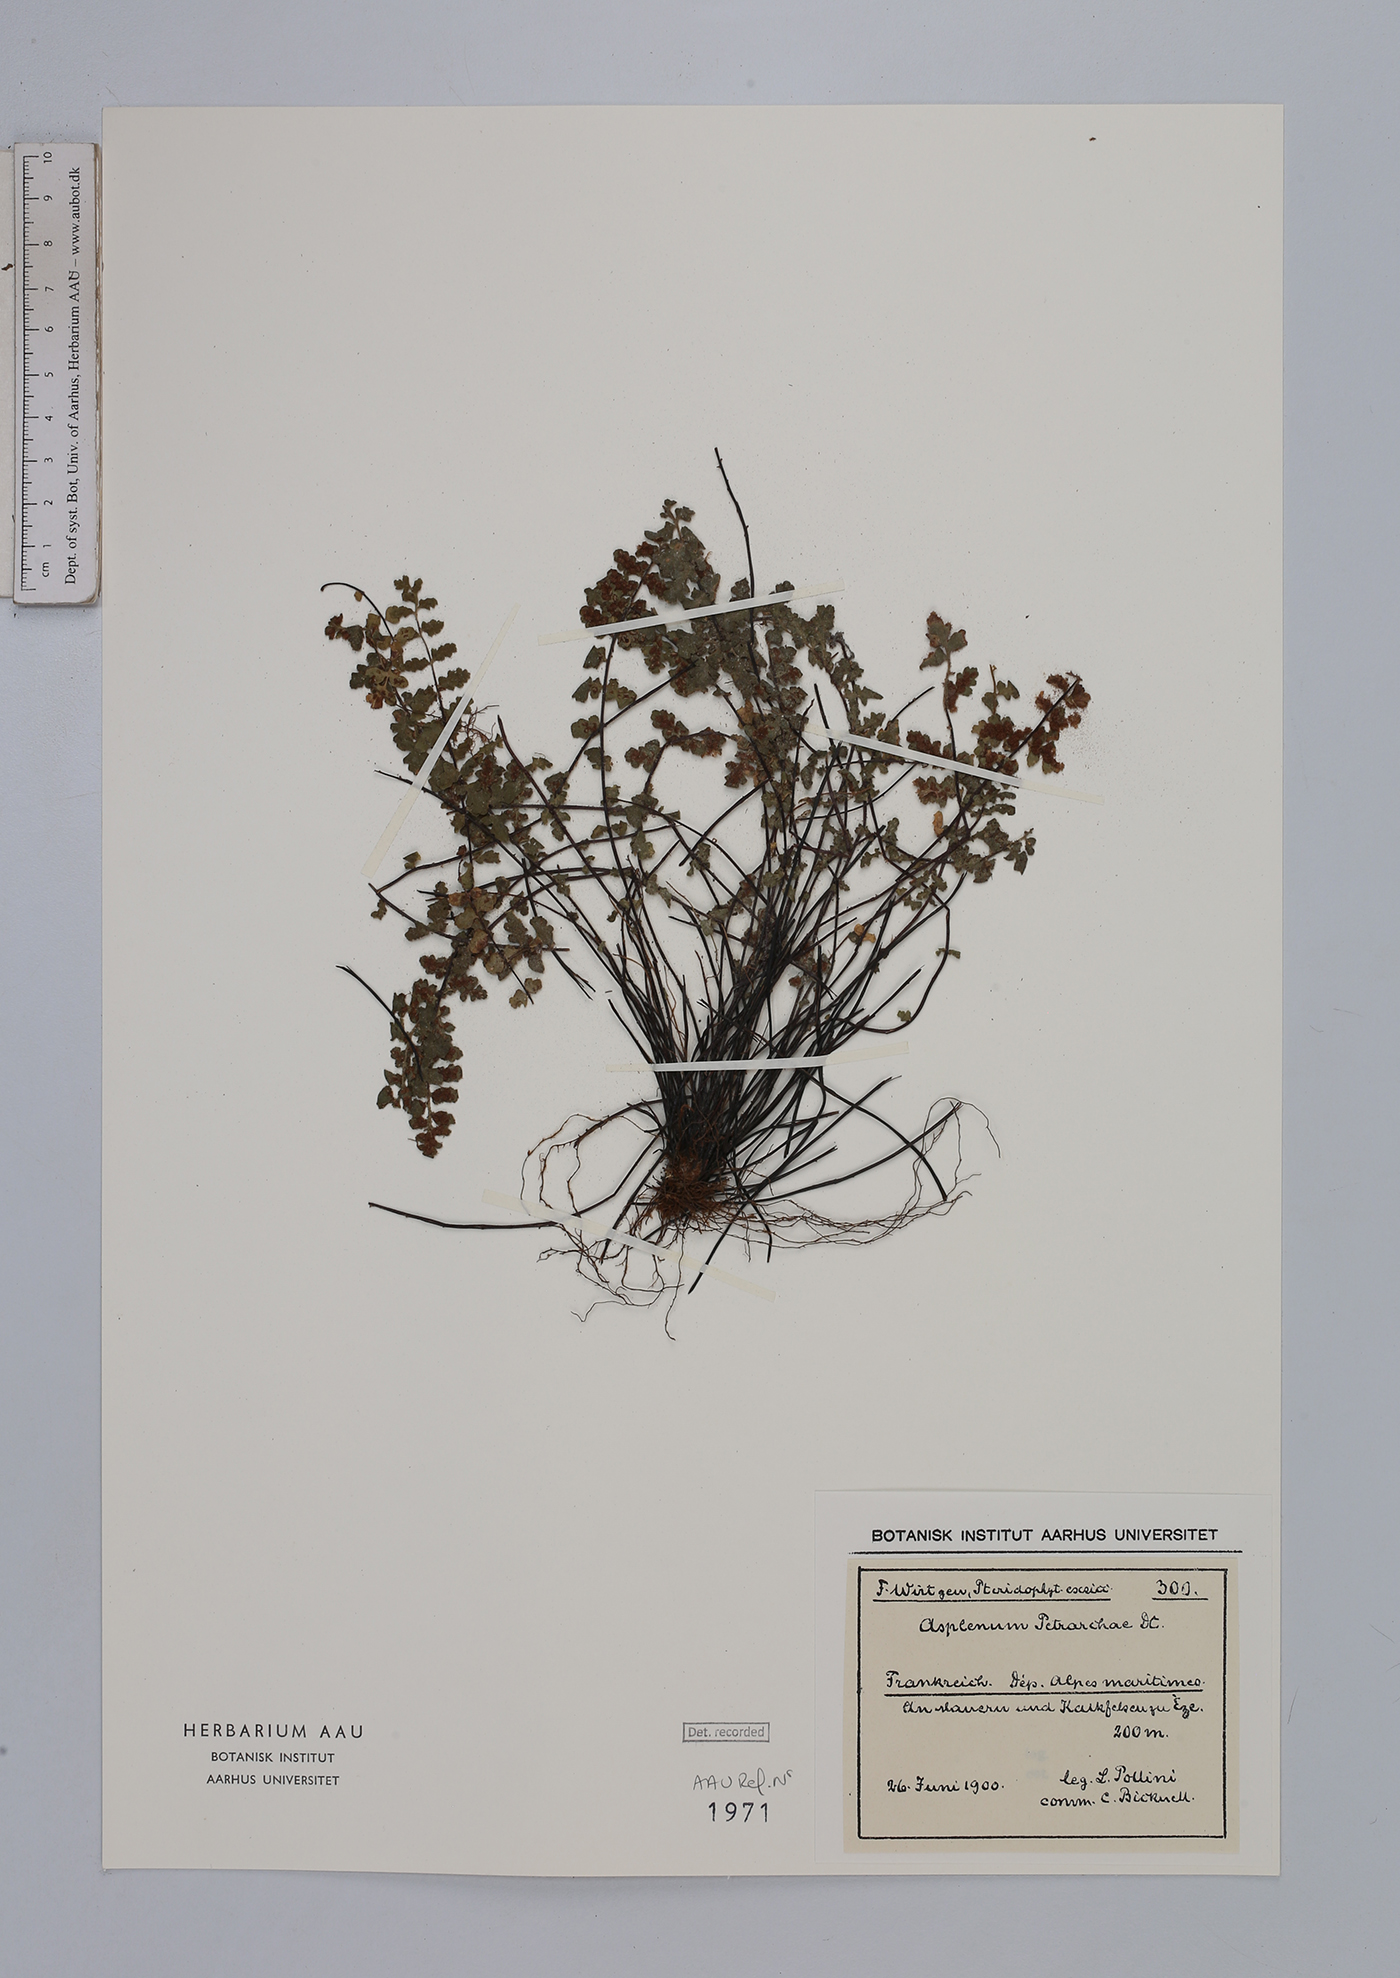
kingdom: Plantae
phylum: Tracheophyta
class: Polypodiopsida
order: Polypodiales
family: Aspleniaceae
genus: Asplenium
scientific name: Asplenium petrarchae
